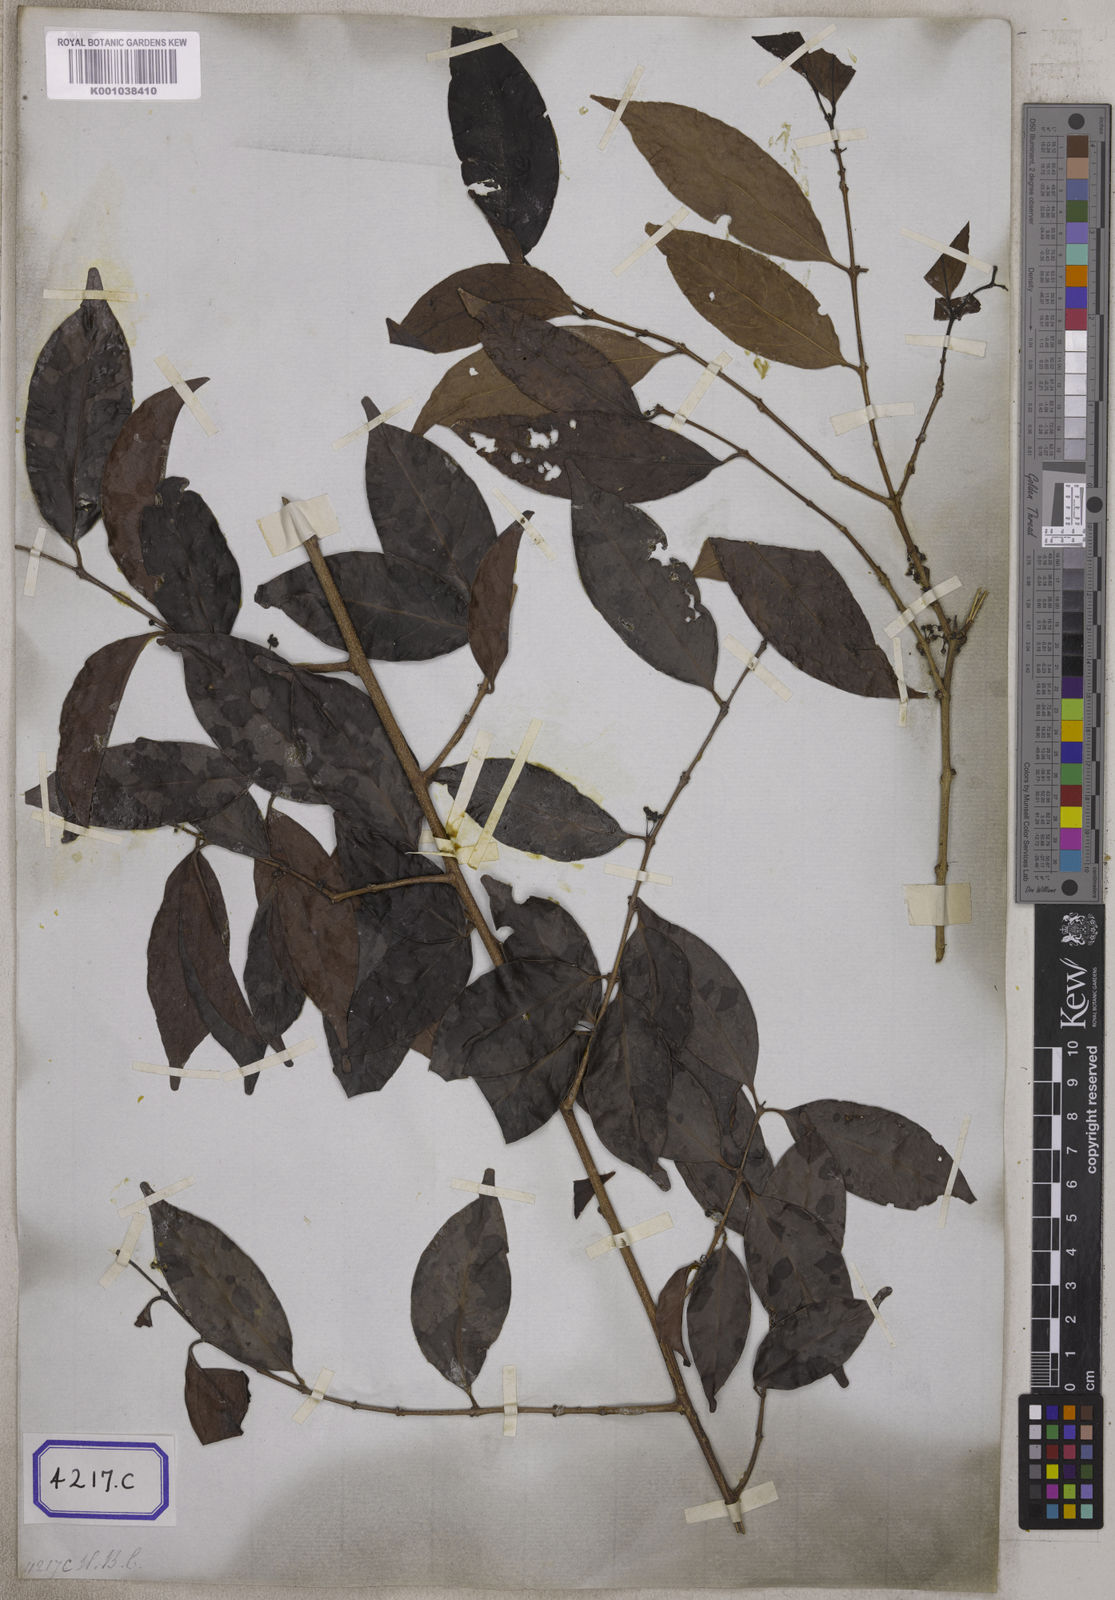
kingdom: Plantae
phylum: Tracheophyta
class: Magnoliopsida
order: Celastrales
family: Celastraceae
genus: Salacia
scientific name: Salacia
